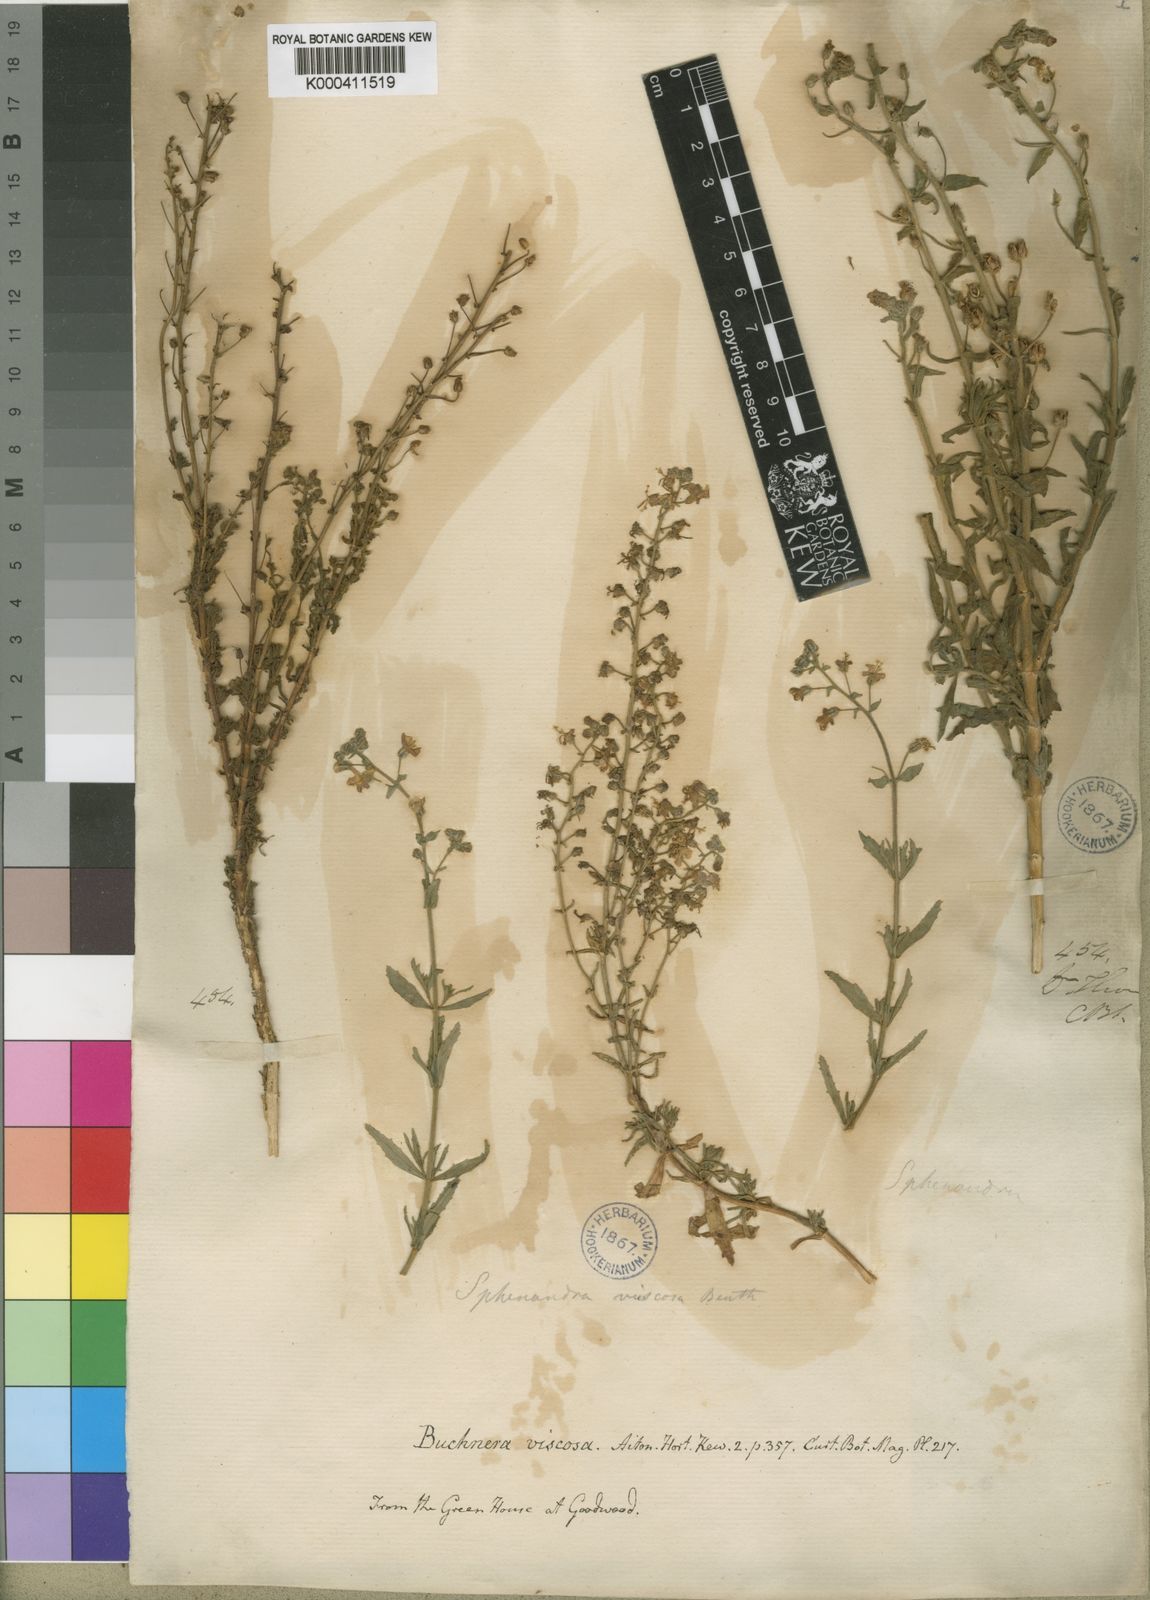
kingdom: Plantae
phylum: Tracheophyta
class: Magnoliopsida
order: Lamiales
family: Scrophulariaceae
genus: Chaenostoma
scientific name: Chaenostoma caeruleum
